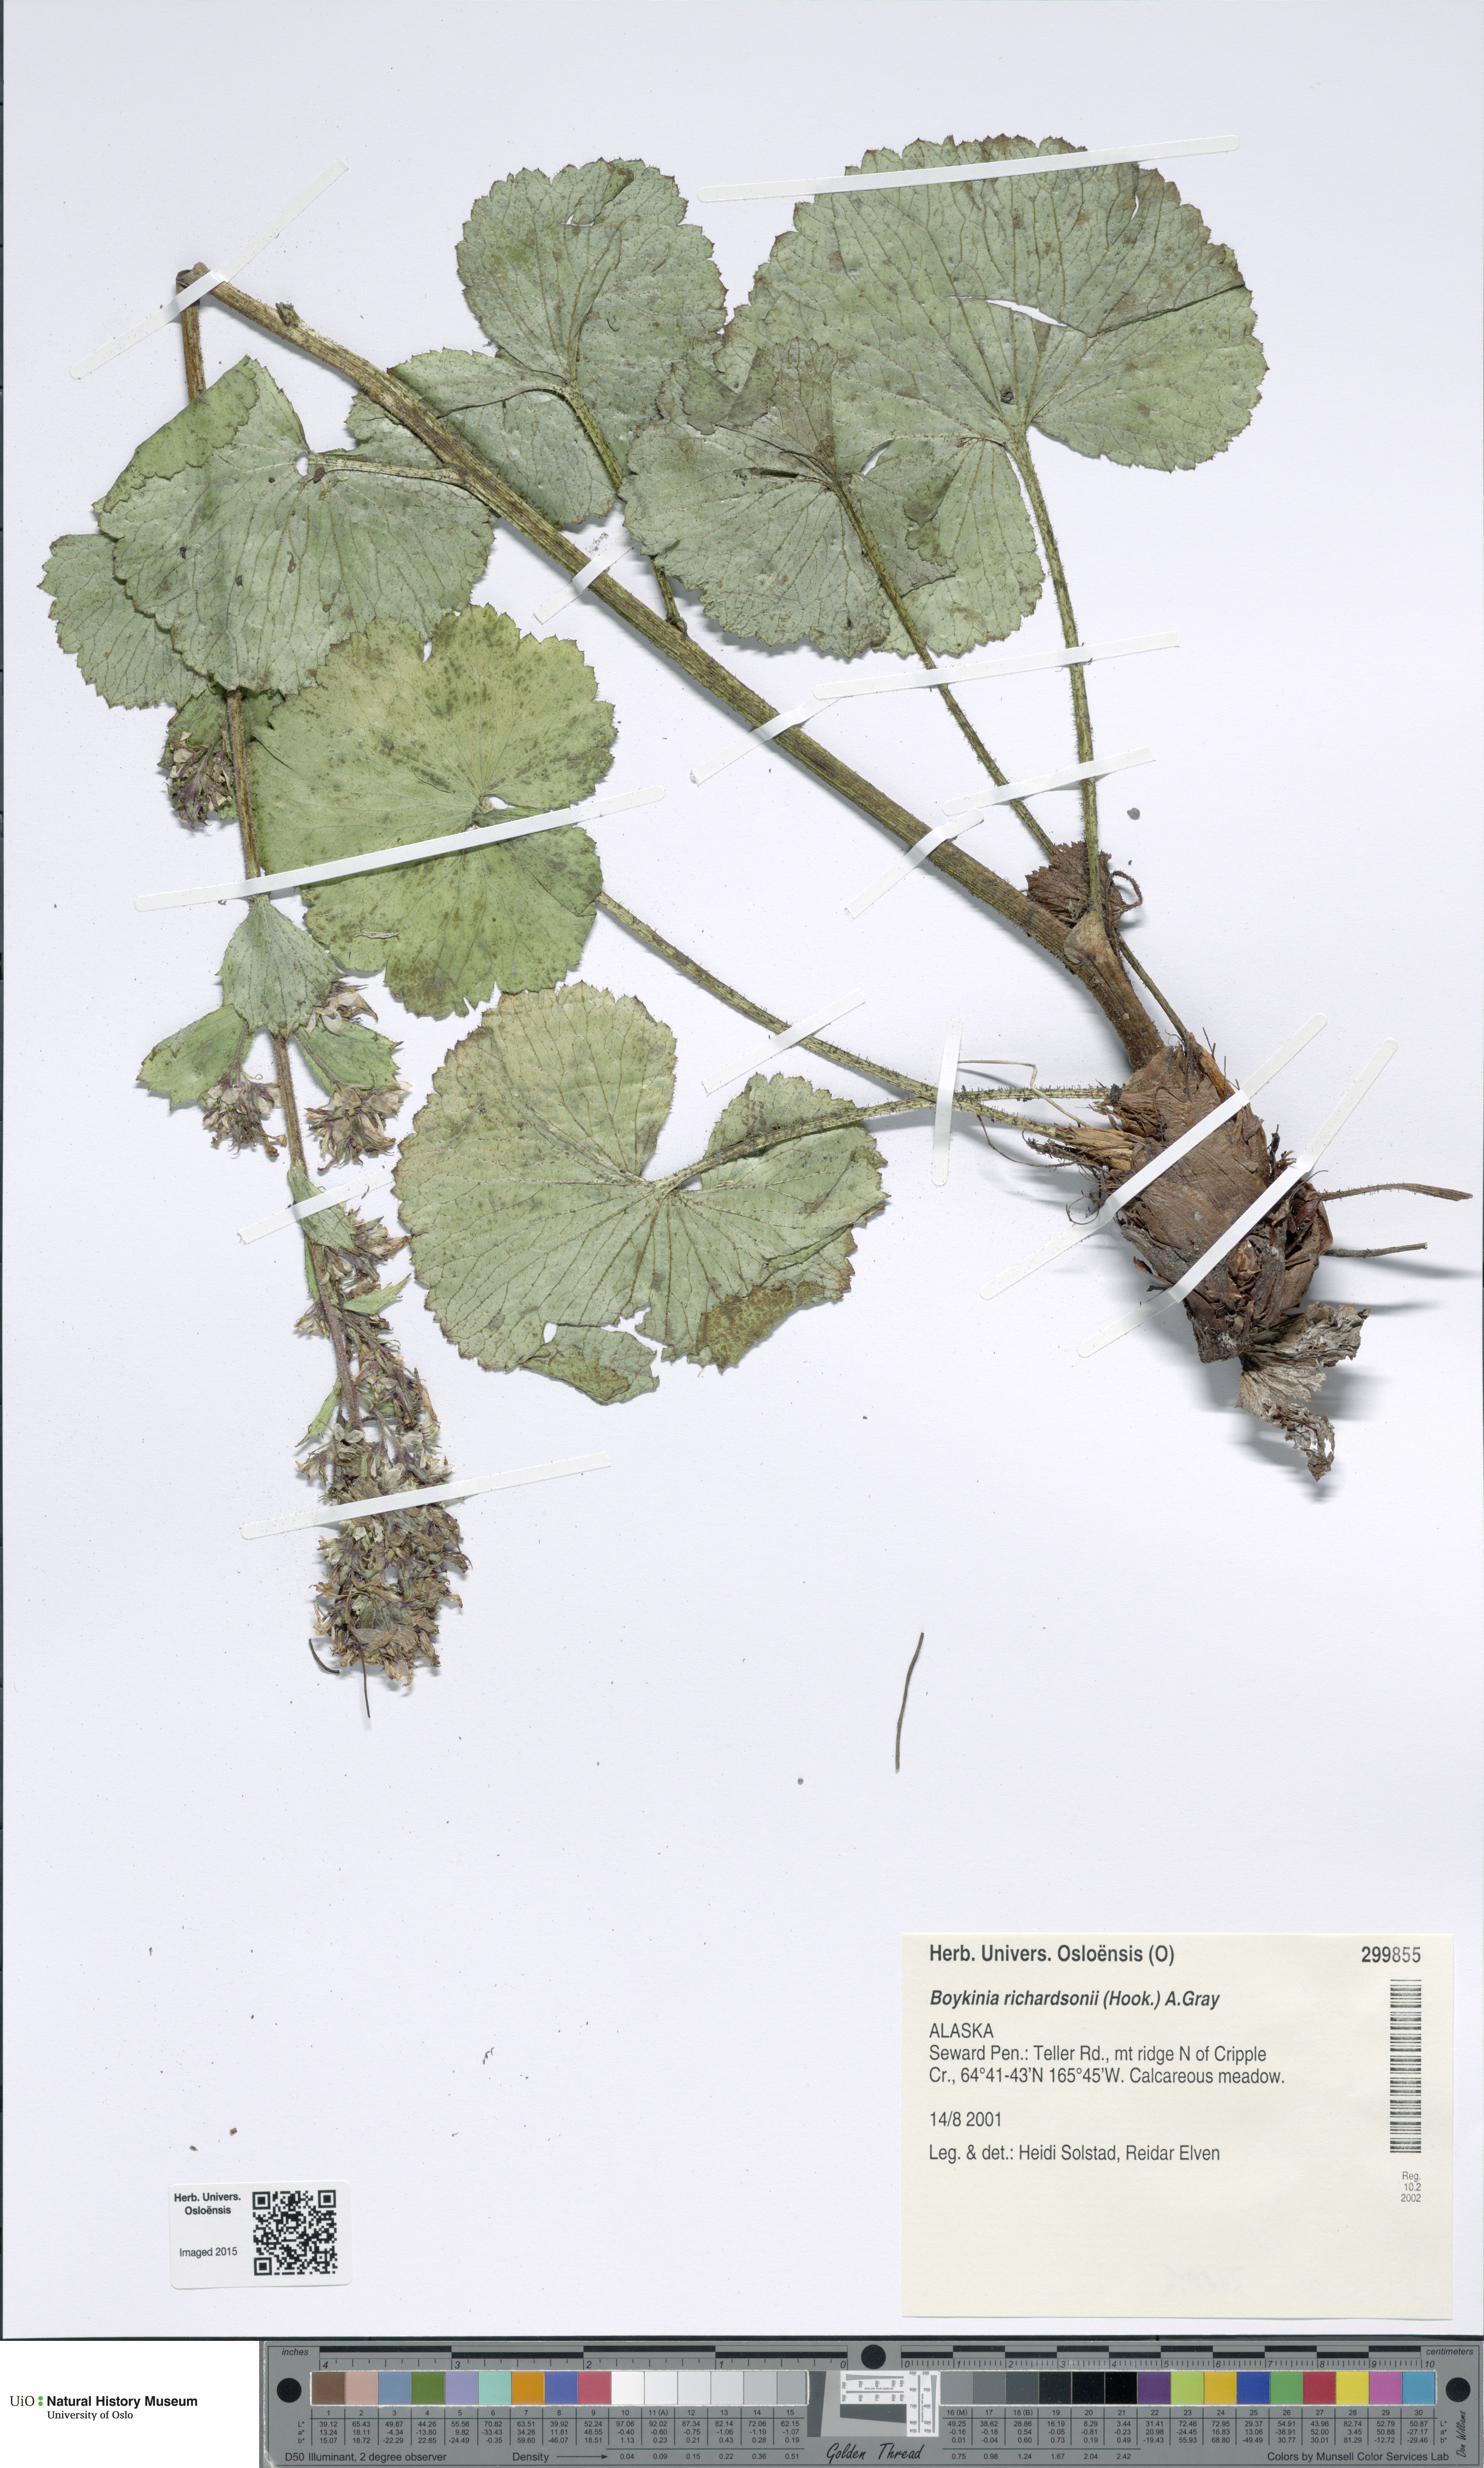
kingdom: Plantae
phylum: Tracheophyta
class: Magnoliopsida
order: Saxifragales
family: Saxifragaceae
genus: Boykinia
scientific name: Boykinia richardsonii
